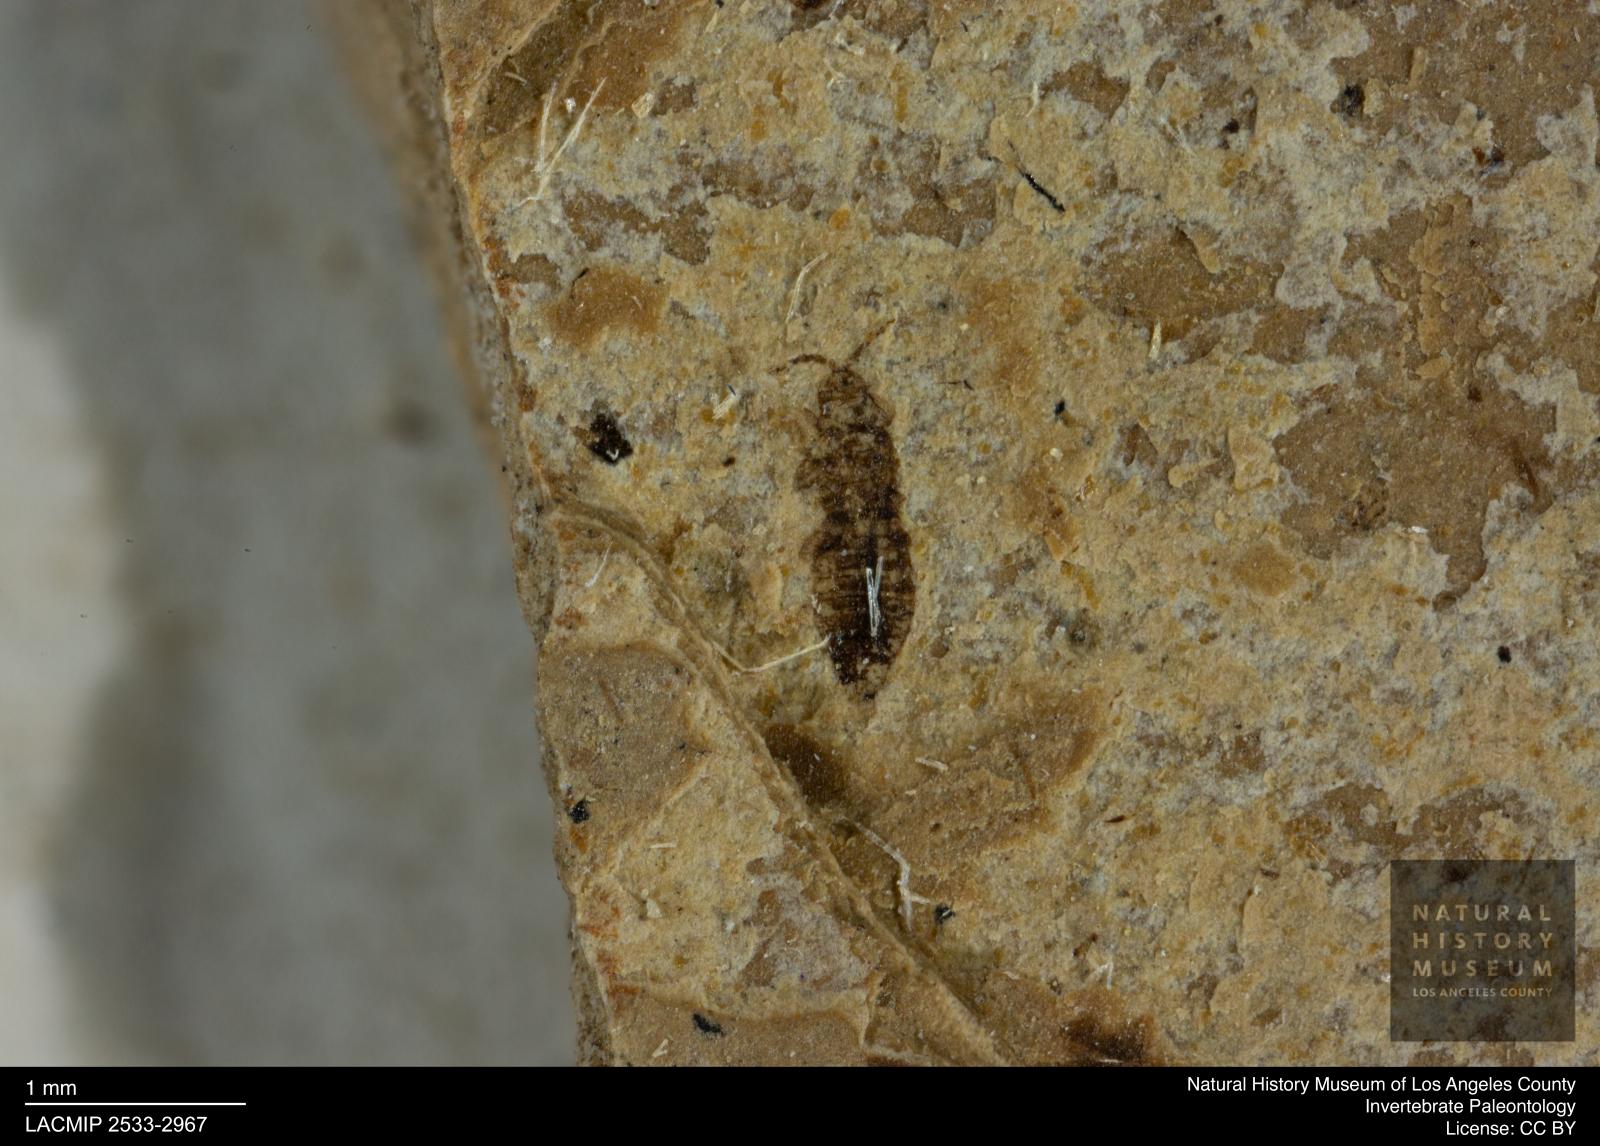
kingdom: Animalia
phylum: Arthropoda
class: Insecta
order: Thysanoptera
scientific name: Thysanoptera
